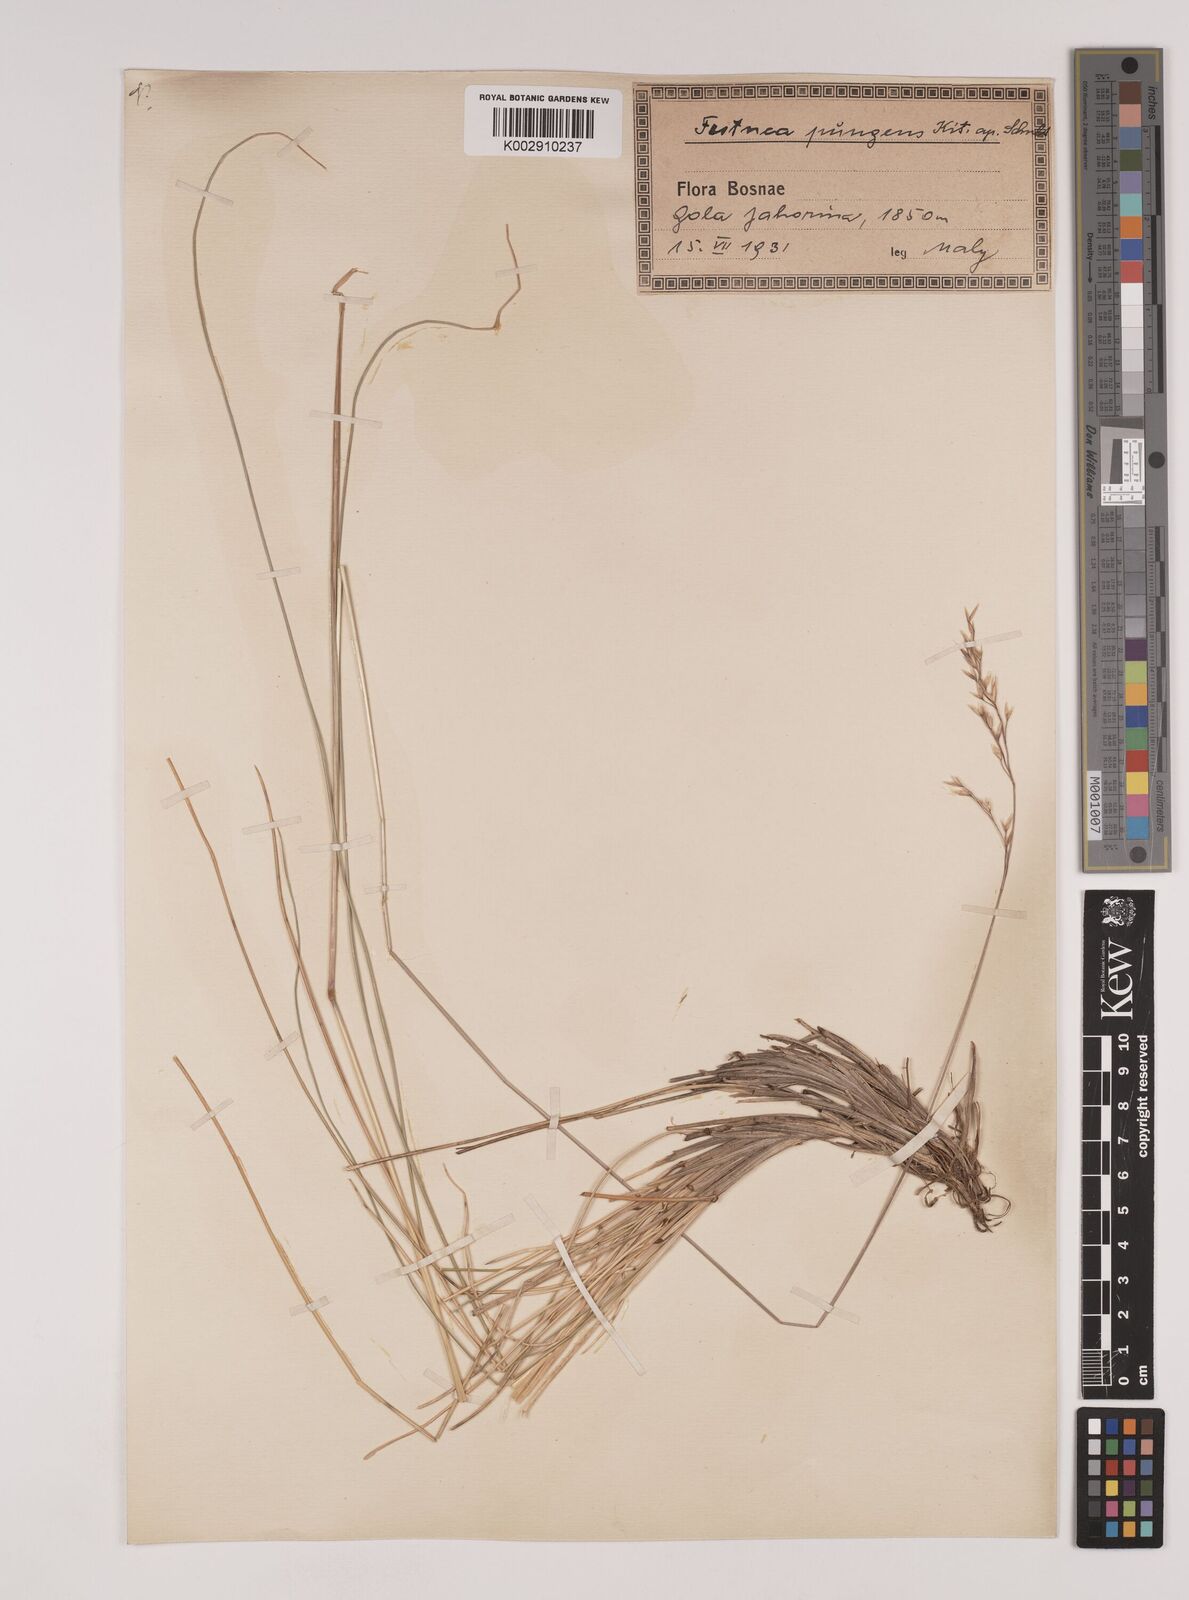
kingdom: Plantae
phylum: Tracheophyta
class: Liliopsida
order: Poales
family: Poaceae
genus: Festuca
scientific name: Festuca bosniaca
